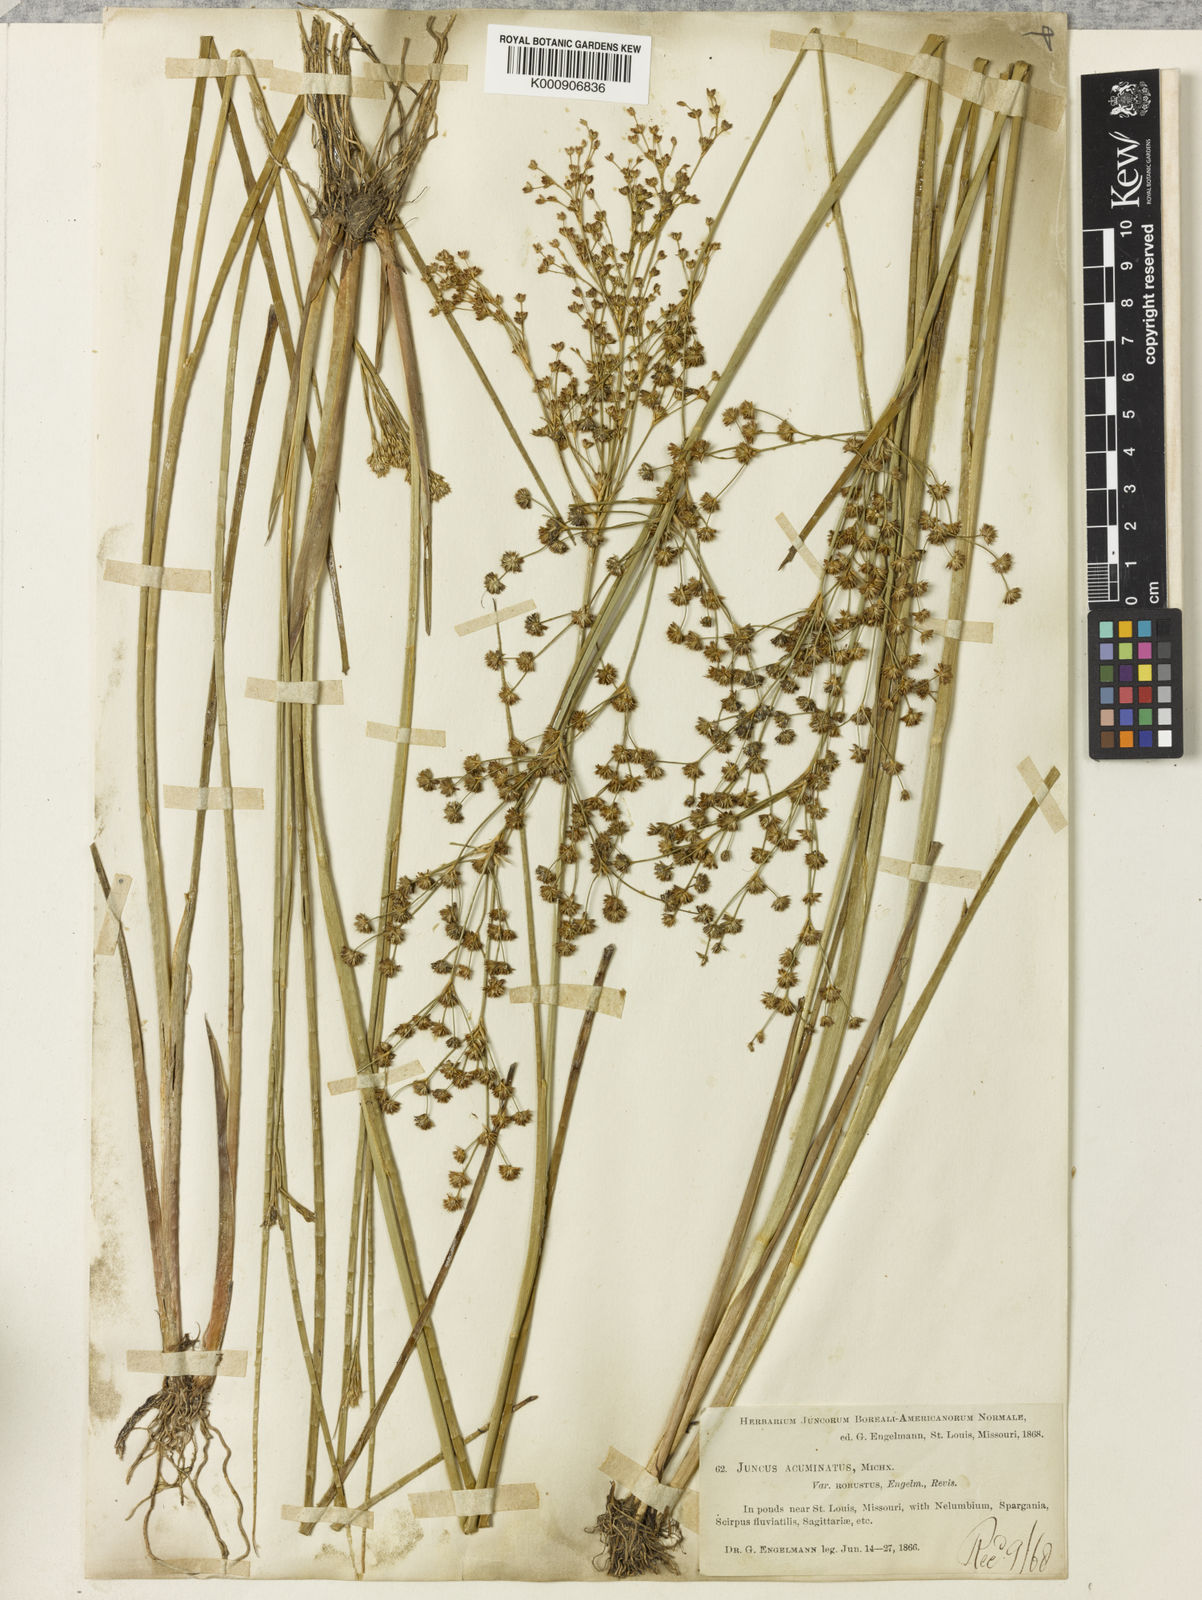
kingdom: Plantae
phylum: Tracheophyta
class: Liliopsida
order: Poales
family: Juncaceae
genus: Juncus
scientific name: Juncus nodatus
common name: Stout rush
